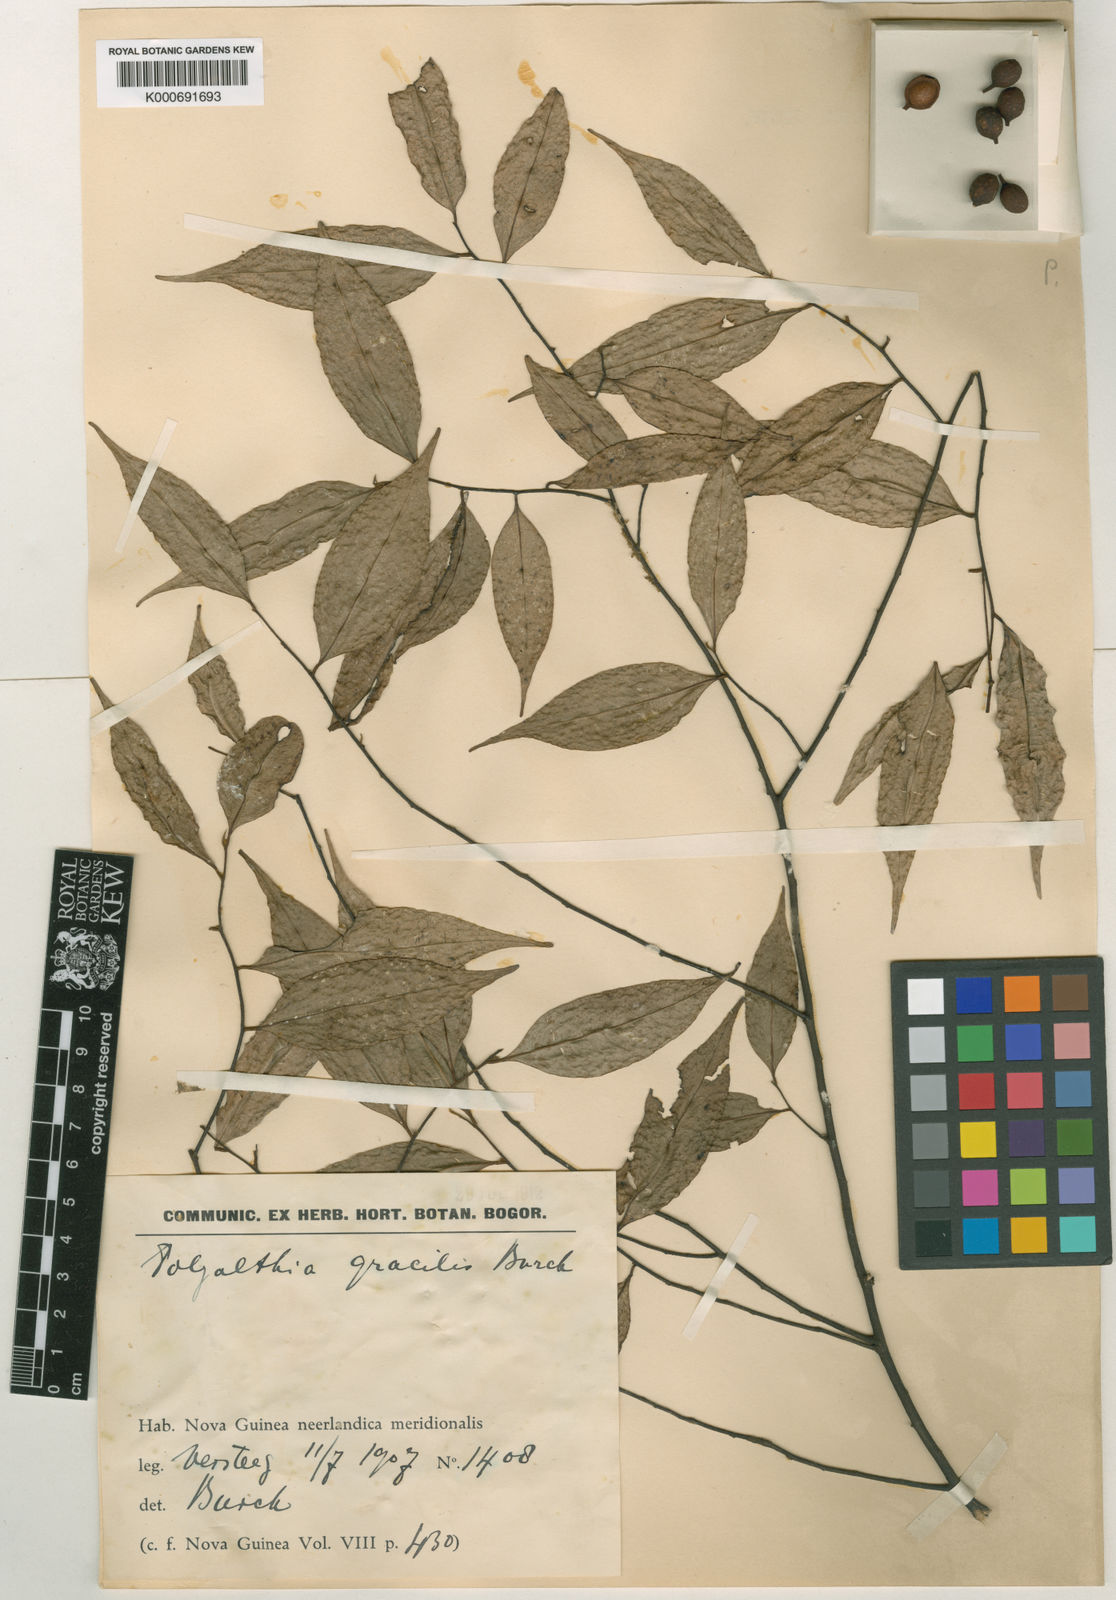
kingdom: Plantae
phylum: Tracheophyta
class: Magnoliopsida
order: Magnoliales
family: Annonaceae
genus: Hubera
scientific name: Hubera gracilis
